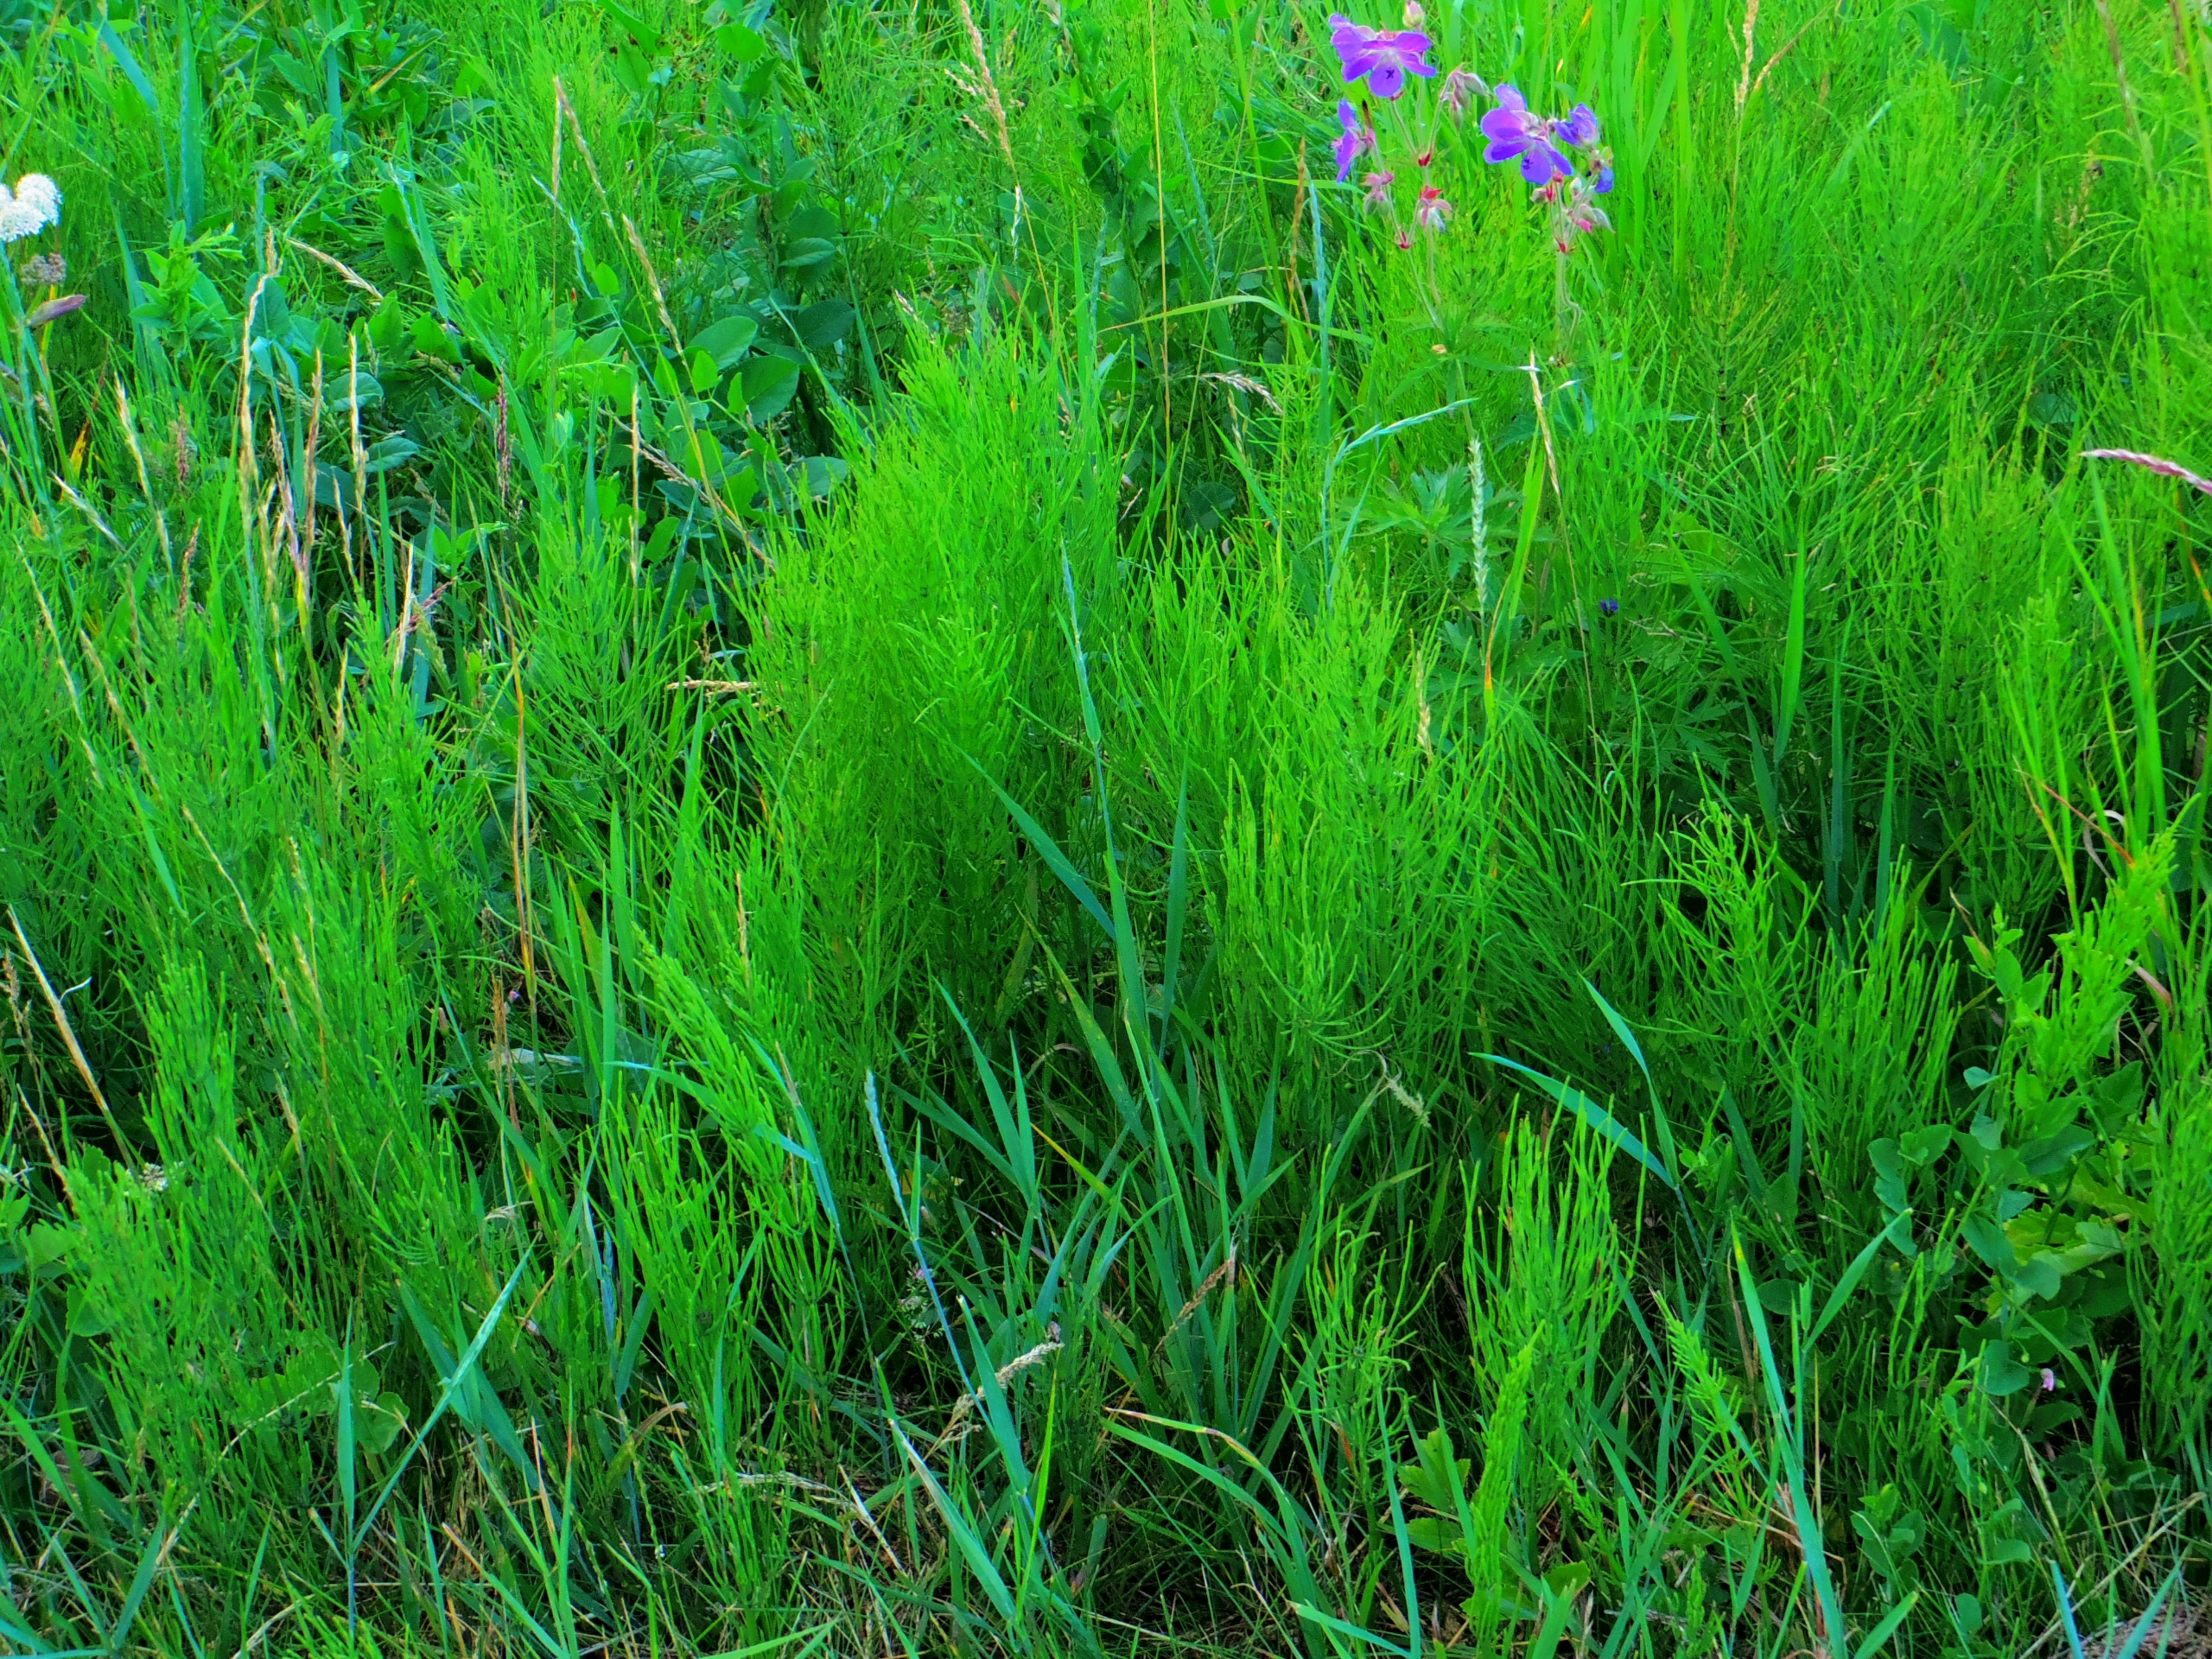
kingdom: Plantae
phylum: Tracheophyta
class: Polypodiopsida
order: Equisetales
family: Equisetaceae
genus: Equisetum
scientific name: Equisetum
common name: Padderokslægten
